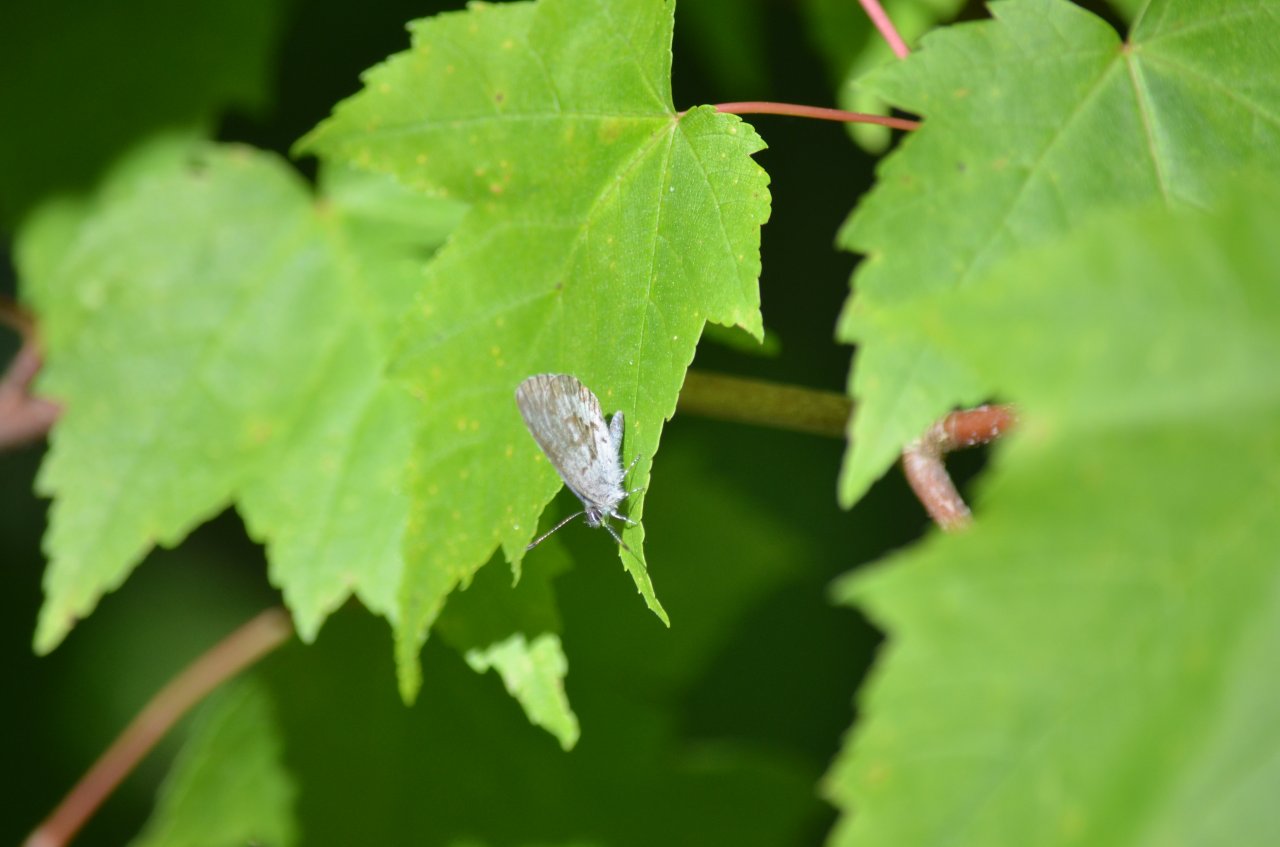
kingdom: Animalia
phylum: Arthropoda
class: Insecta
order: Lepidoptera
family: Lycaenidae
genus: Celastrina
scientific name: Celastrina lucia
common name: Northern Spring Azure
